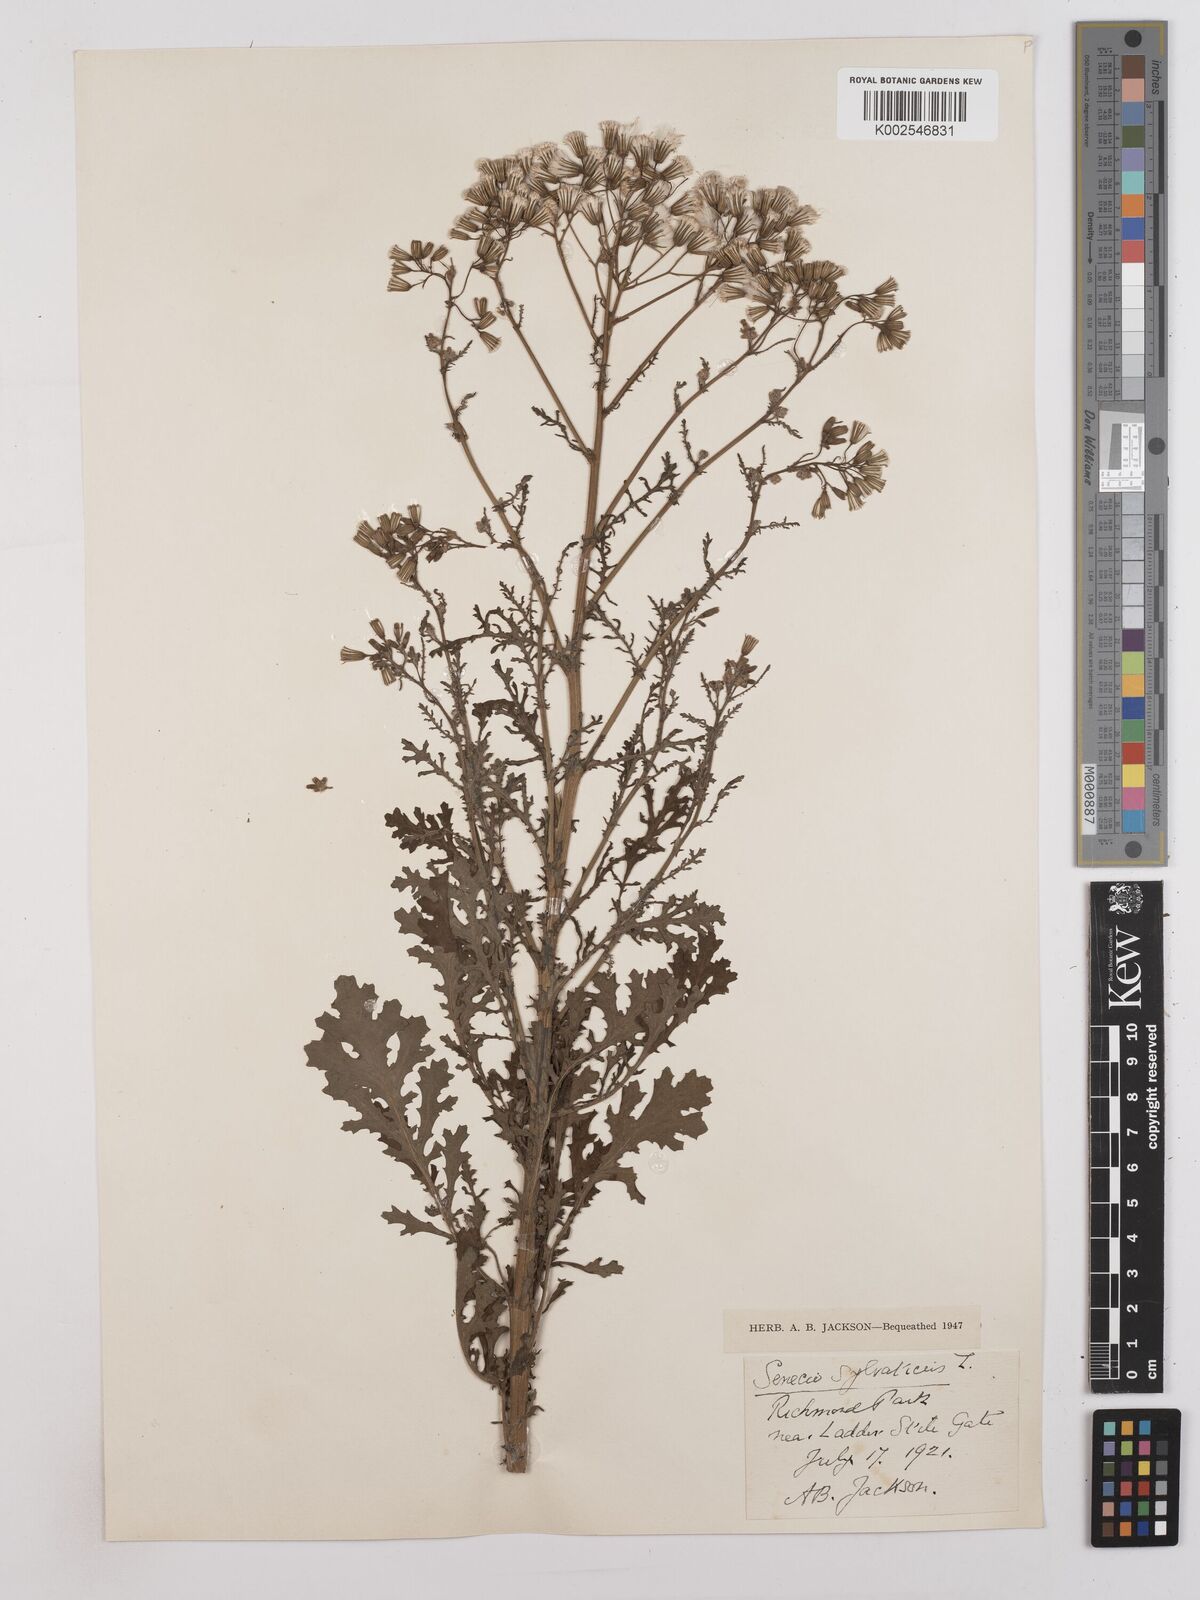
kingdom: Plantae
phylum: Tracheophyta
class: Magnoliopsida
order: Asterales
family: Asteraceae
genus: Senecio
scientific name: Senecio sylvaticus
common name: Woodland ragwort
